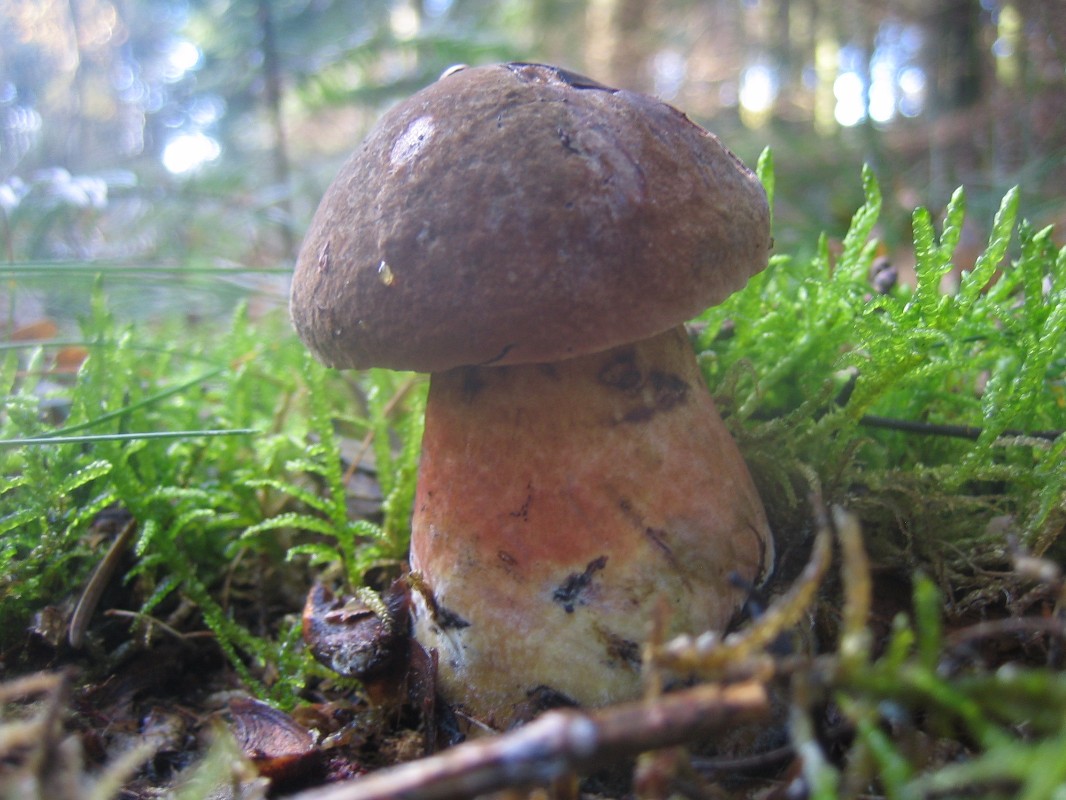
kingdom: Fungi
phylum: Basidiomycota
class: Agaricomycetes
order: Boletales
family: Boletaceae
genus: Neoboletus
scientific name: Neoboletus erythropus
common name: punktstokket indigorørhat
